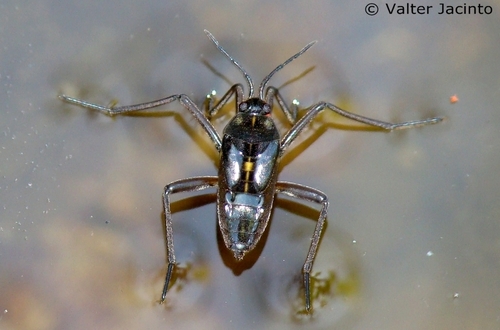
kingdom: Animalia
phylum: Arthropoda
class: Insecta
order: Hemiptera
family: Veliidae
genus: Velia
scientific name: Velia
